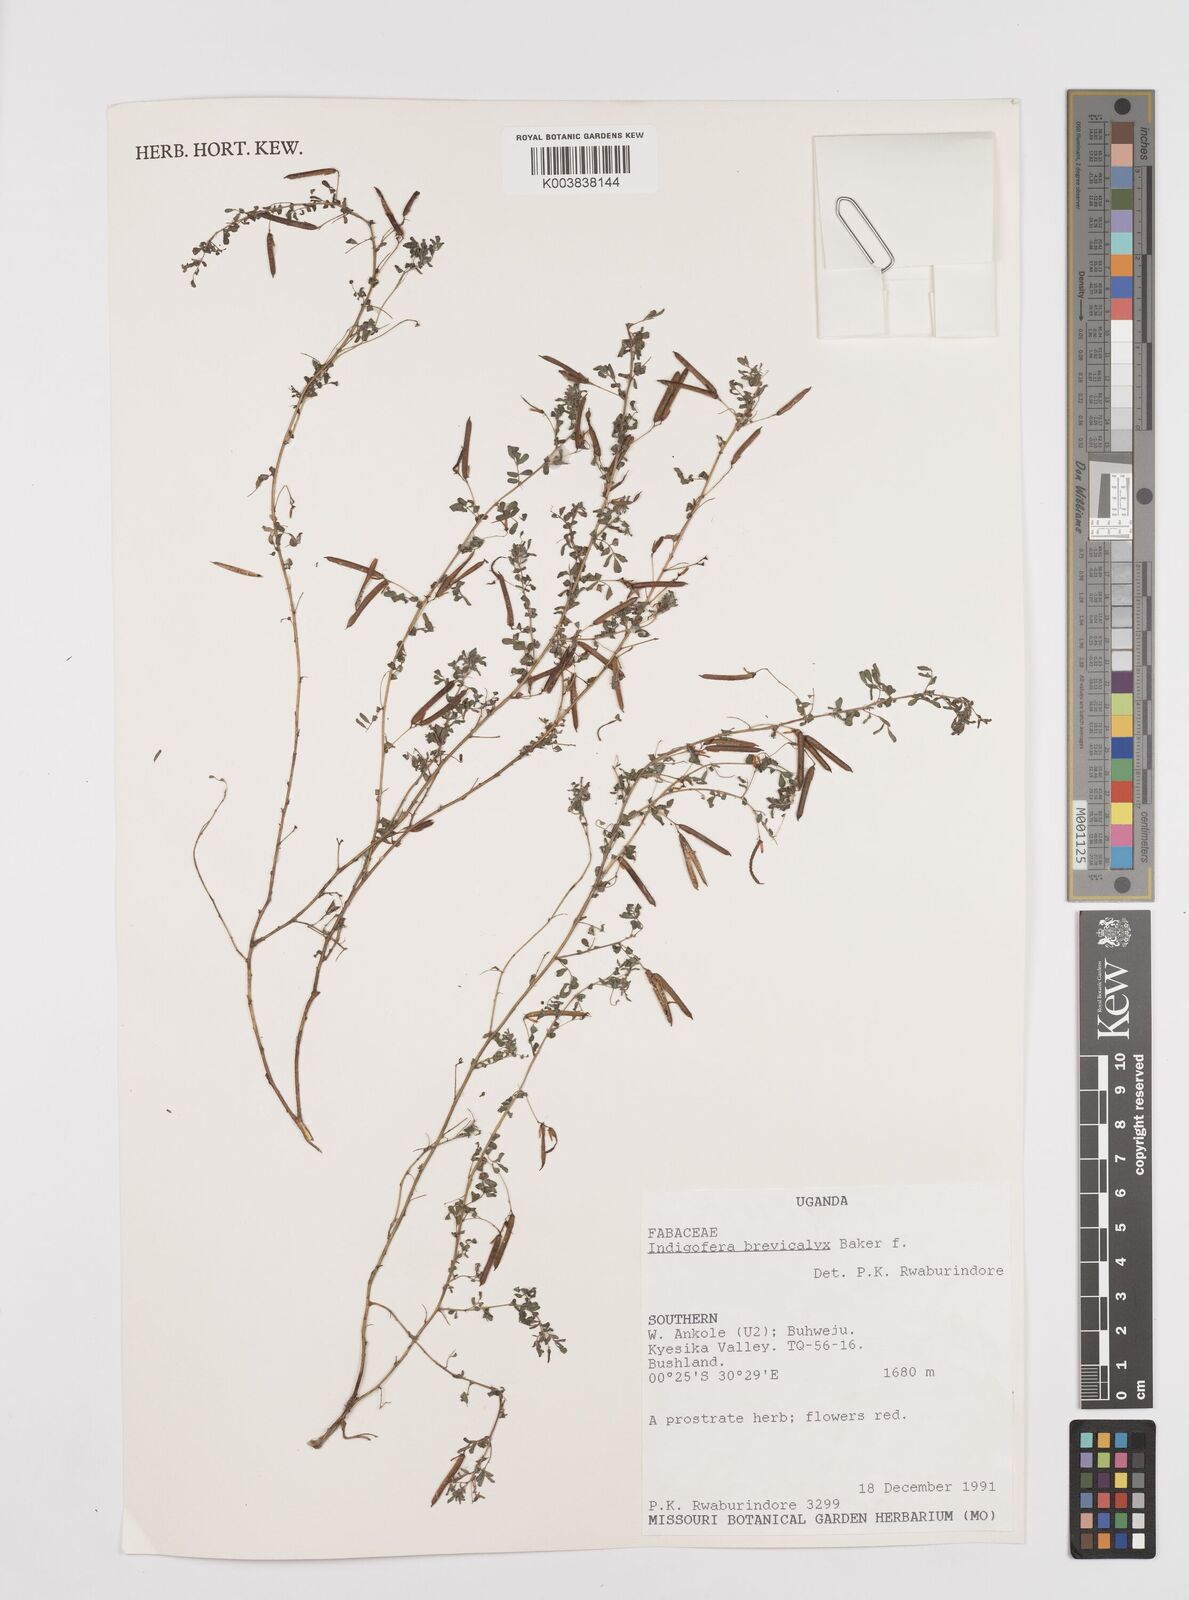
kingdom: Plantae
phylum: Tracheophyta
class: Magnoliopsida
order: Fabales
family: Fabaceae
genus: Indigofera
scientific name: Indigofera brevicalyx
